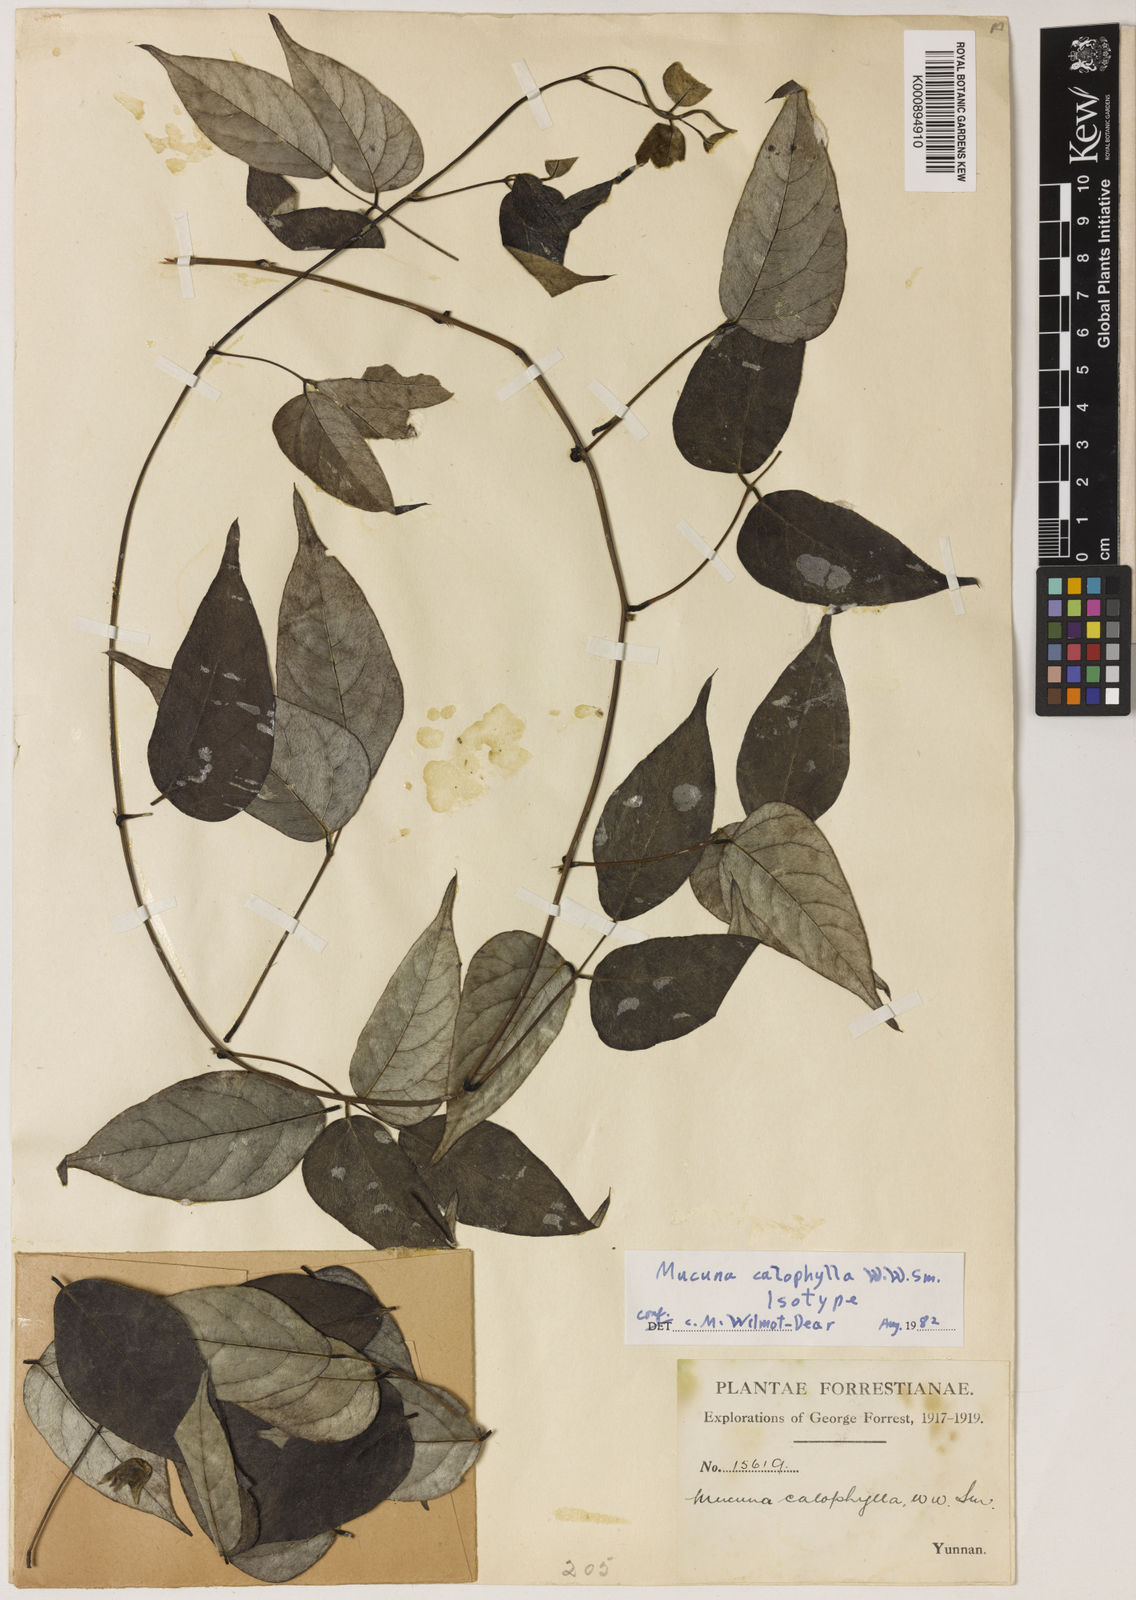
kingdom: Plantae
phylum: Tracheophyta
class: Magnoliopsida
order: Fabales
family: Fabaceae
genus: Mucuna
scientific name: Mucuna calophylla
